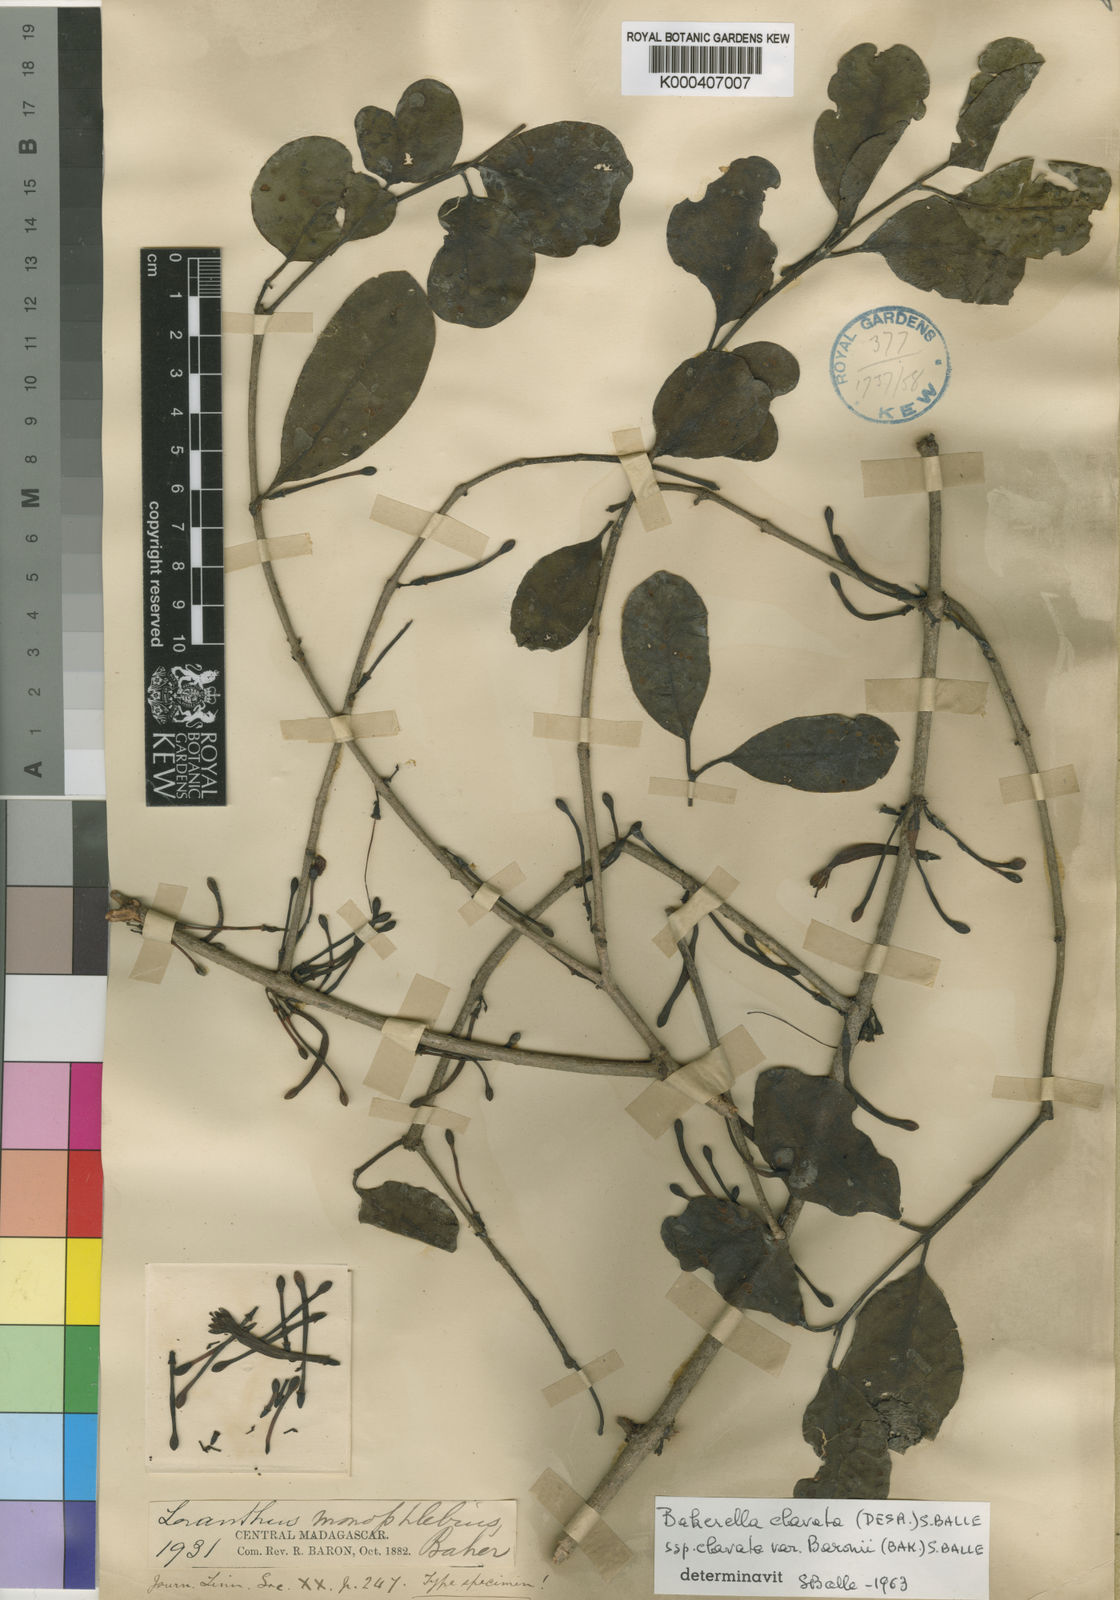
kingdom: Plantae
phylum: Tracheophyta
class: Magnoliopsida
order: Santalales
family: Loranthaceae
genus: Bakerella
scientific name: Bakerella clavata
